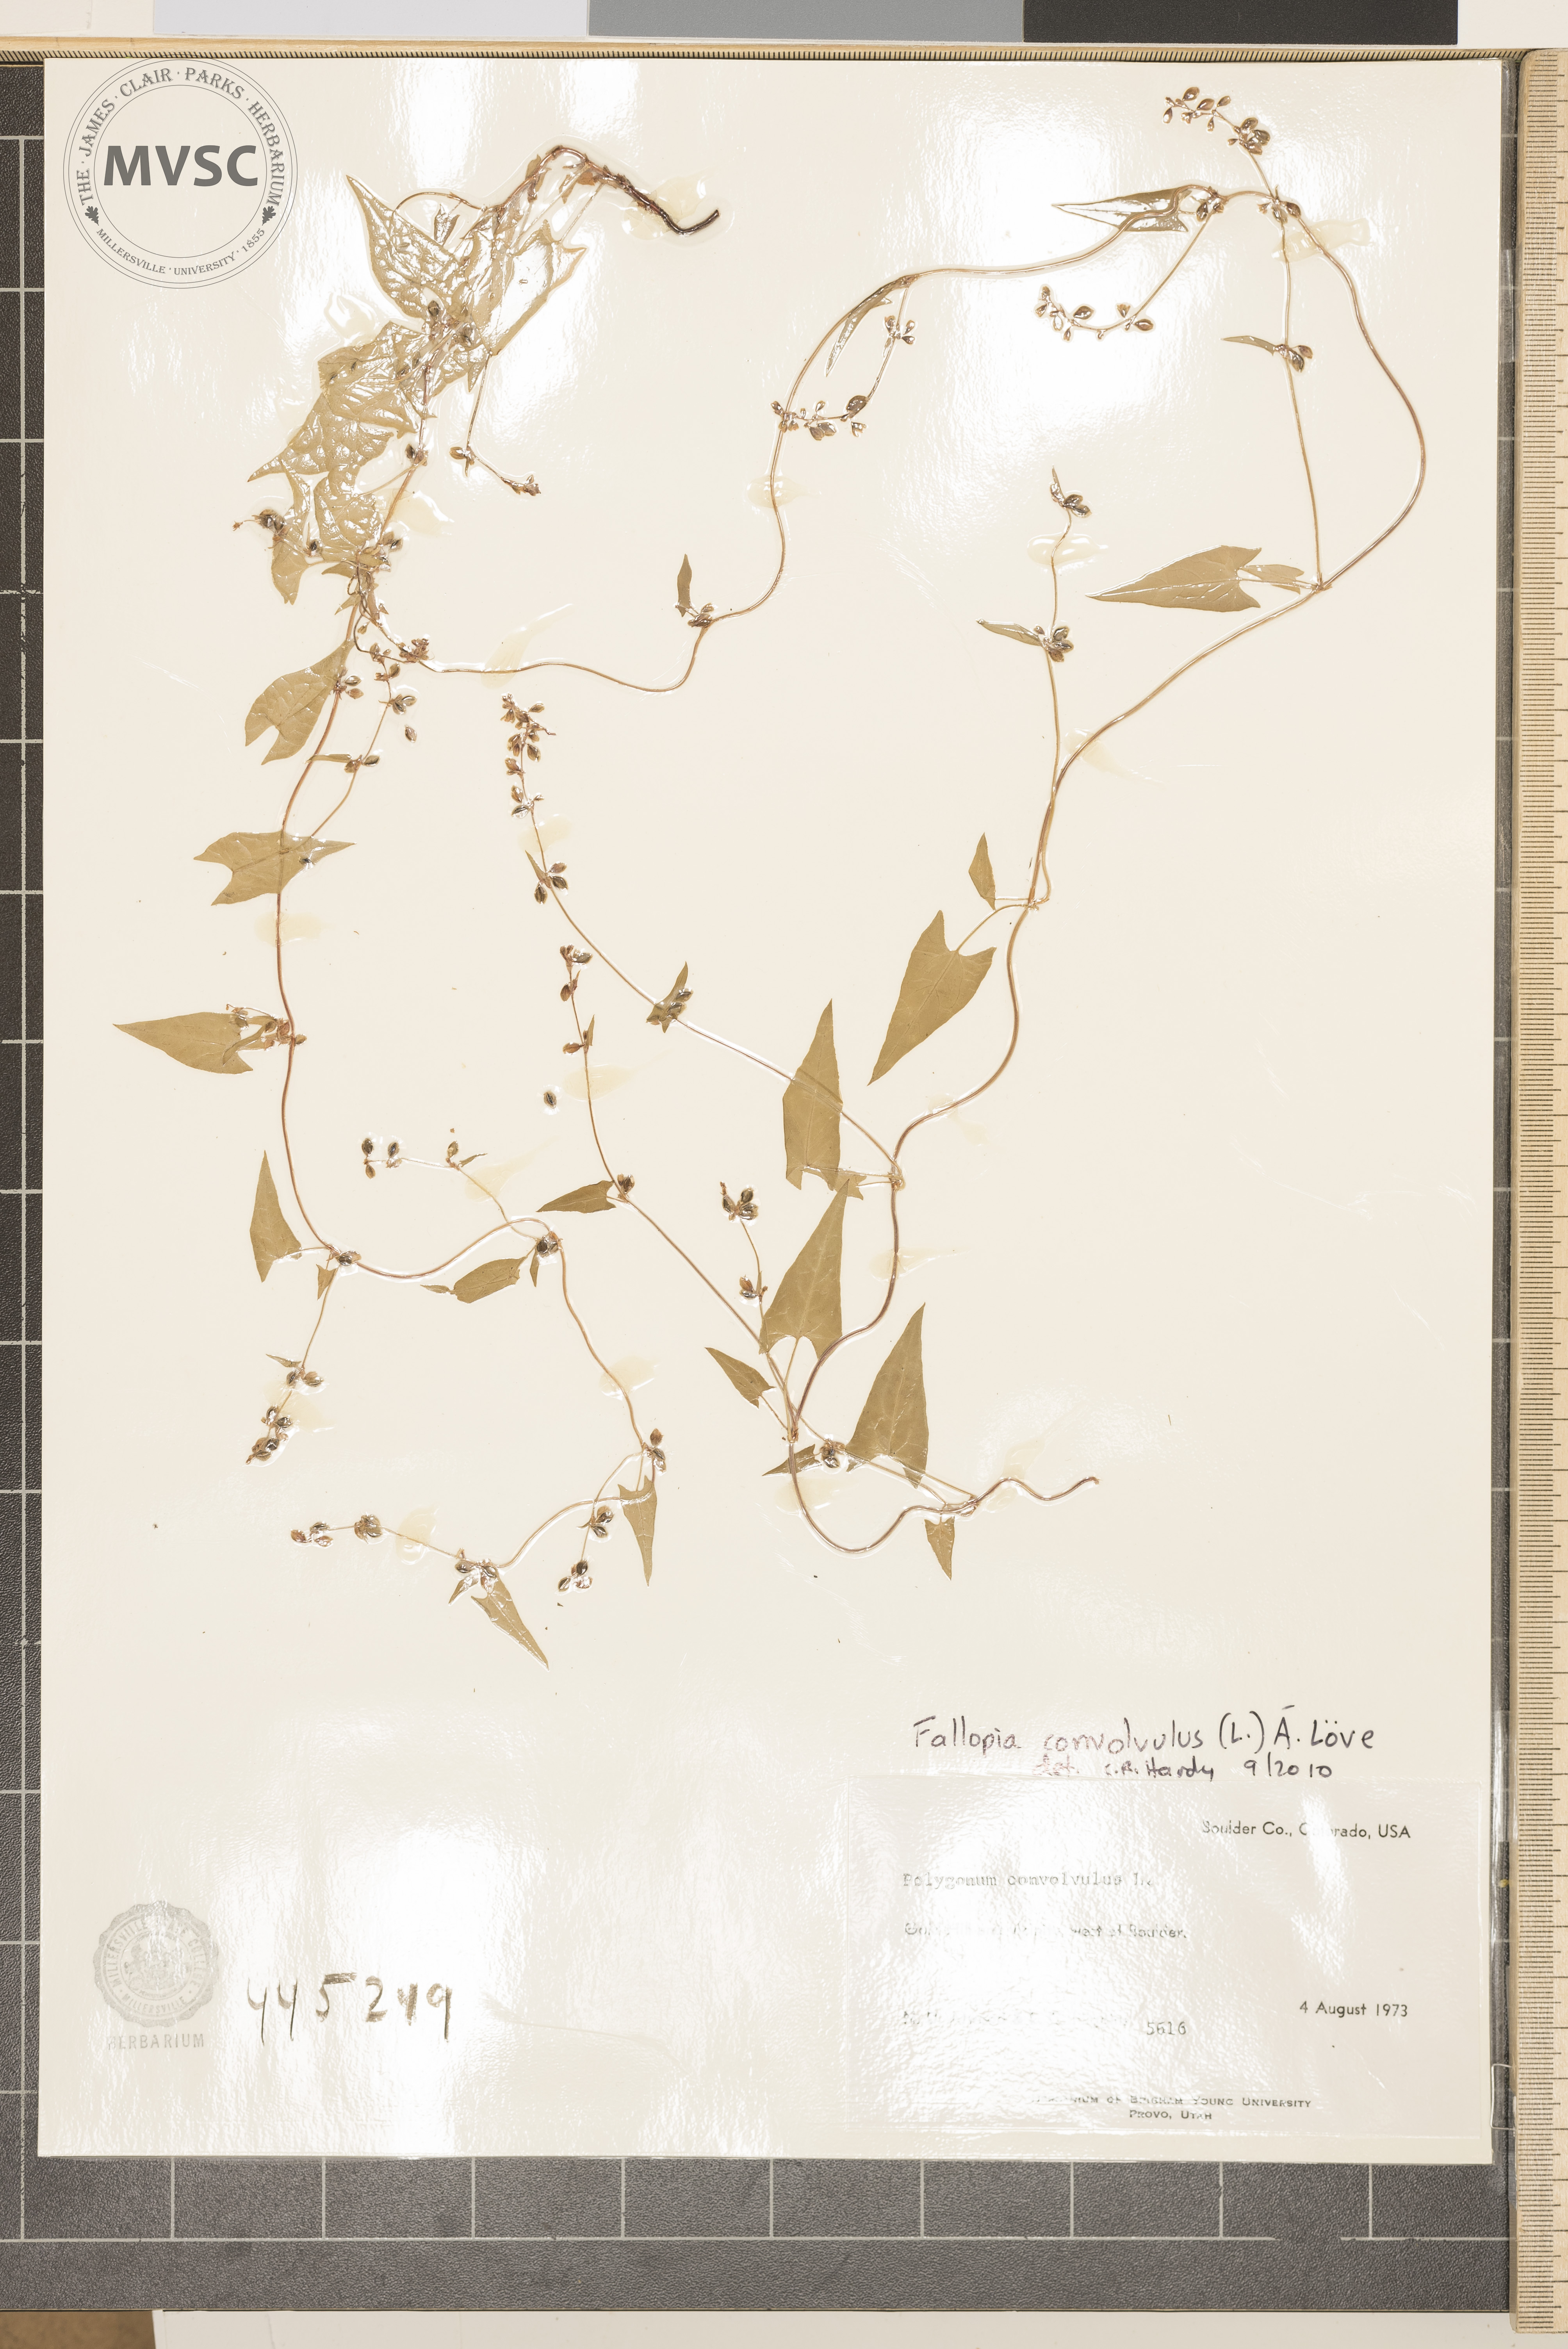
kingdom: Plantae
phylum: Tracheophyta
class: Magnoliopsida
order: Caryophyllales
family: Polygonaceae
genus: Fallopia
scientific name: Fallopia convolvulus
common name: Black bindweed
